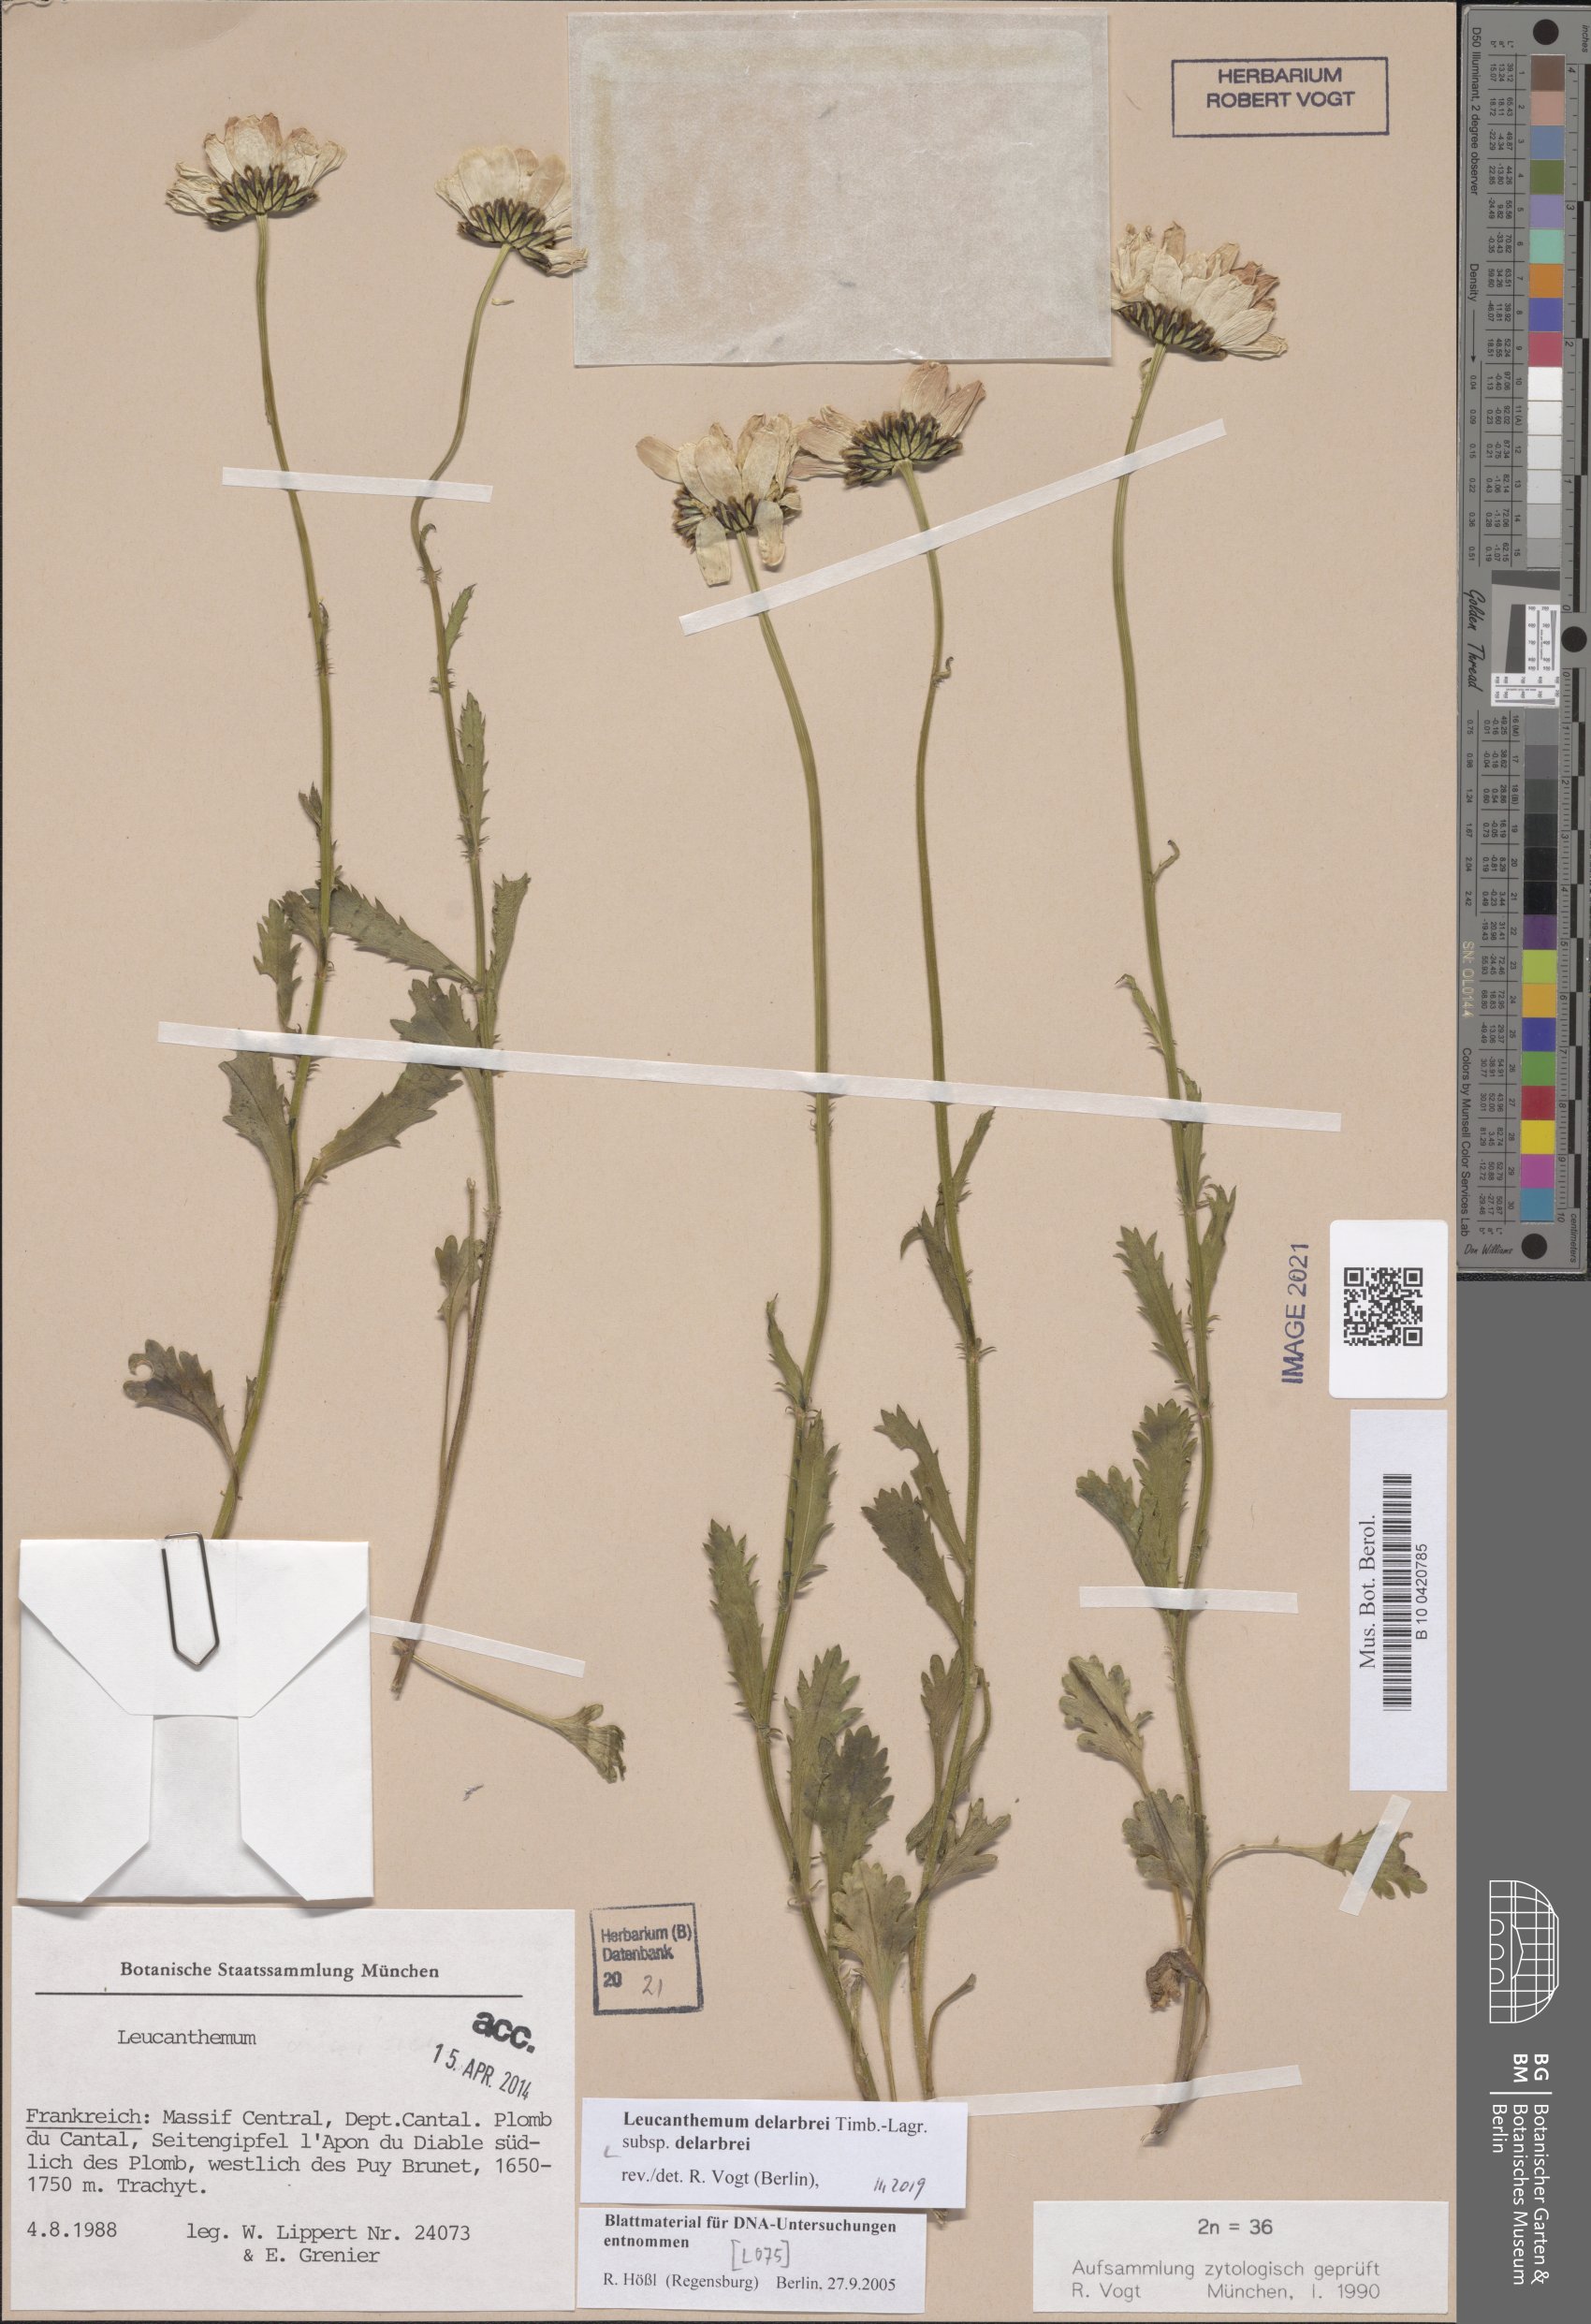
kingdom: Plantae
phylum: Tracheophyta
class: Magnoliopsida
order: Asterales
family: Asteraceae
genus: Leucanthemum
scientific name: Leucanthemum delarbrei
